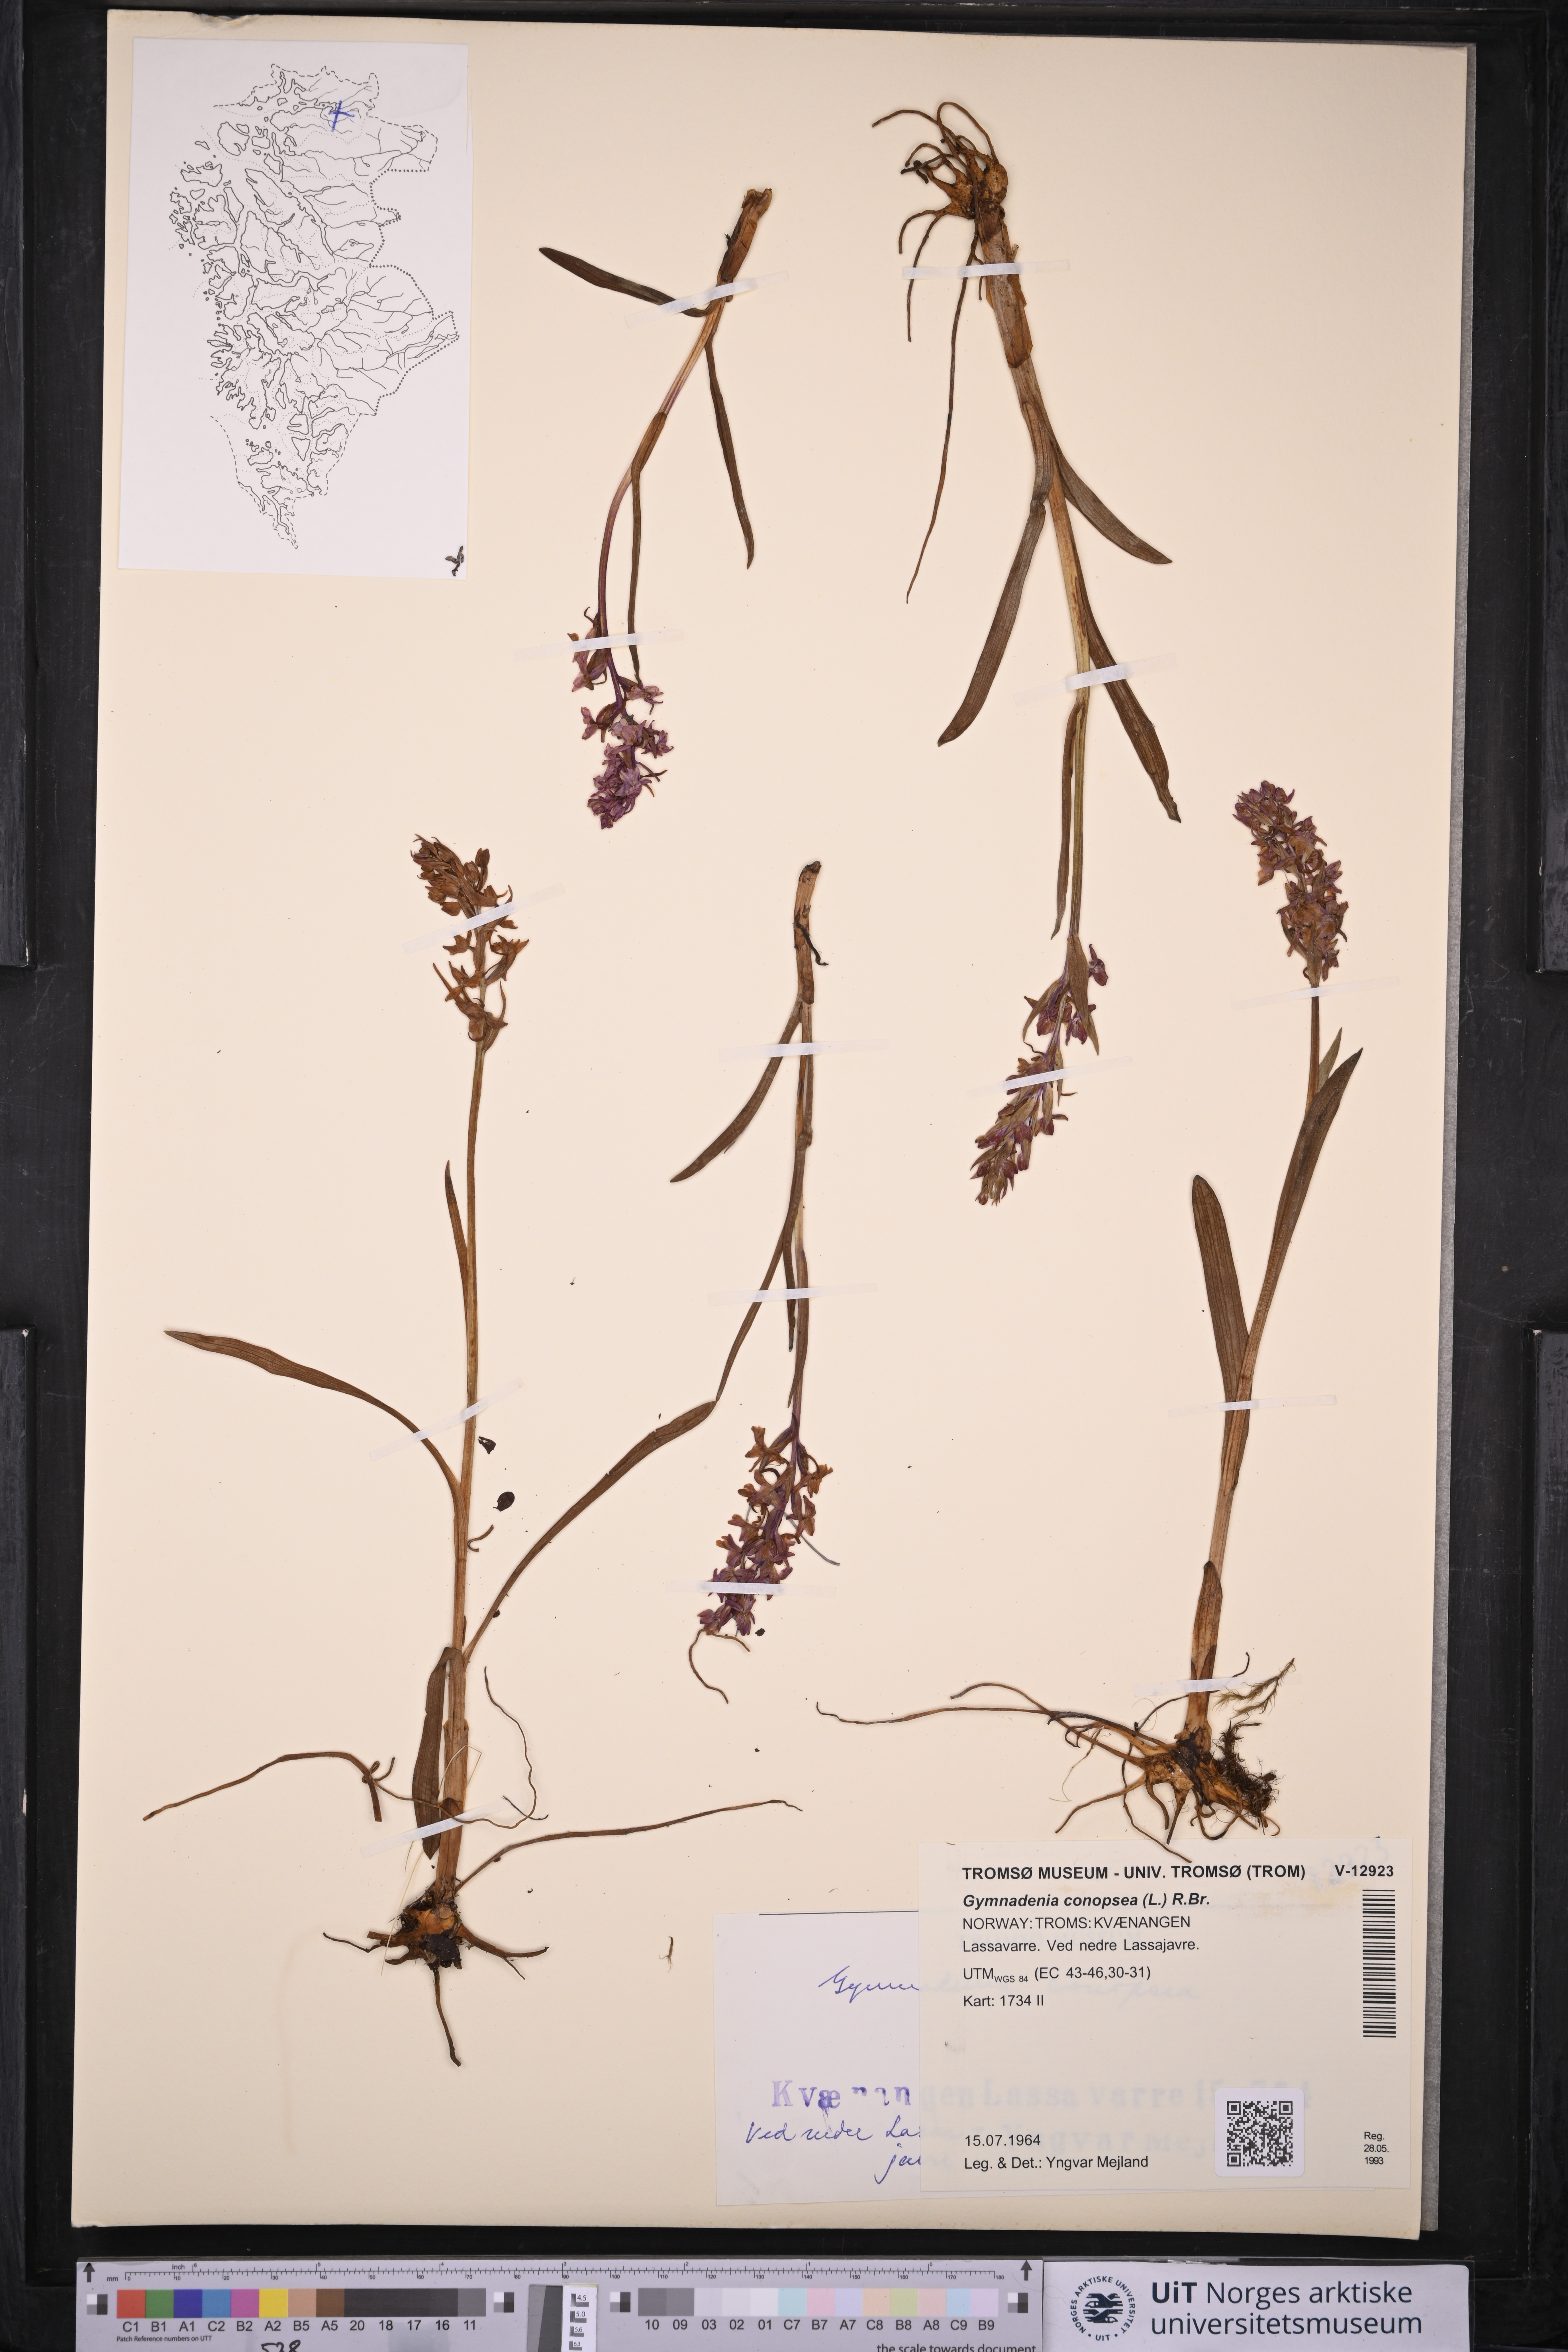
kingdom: Plantae
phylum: Tracheophyta
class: Liliopsida
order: Asparagales
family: Orchidaceae
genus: Gymnadenia
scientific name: Gymnadenia conopsea
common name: Fragrant orchid
